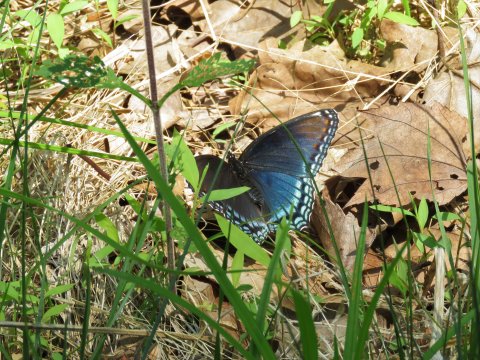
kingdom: Animalia
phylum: Arthropoda
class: Insecta
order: Lepidoptera
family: Nymphalidae
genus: Limenitis
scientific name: Limenitis arthemis
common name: Red-spotted Admiral
